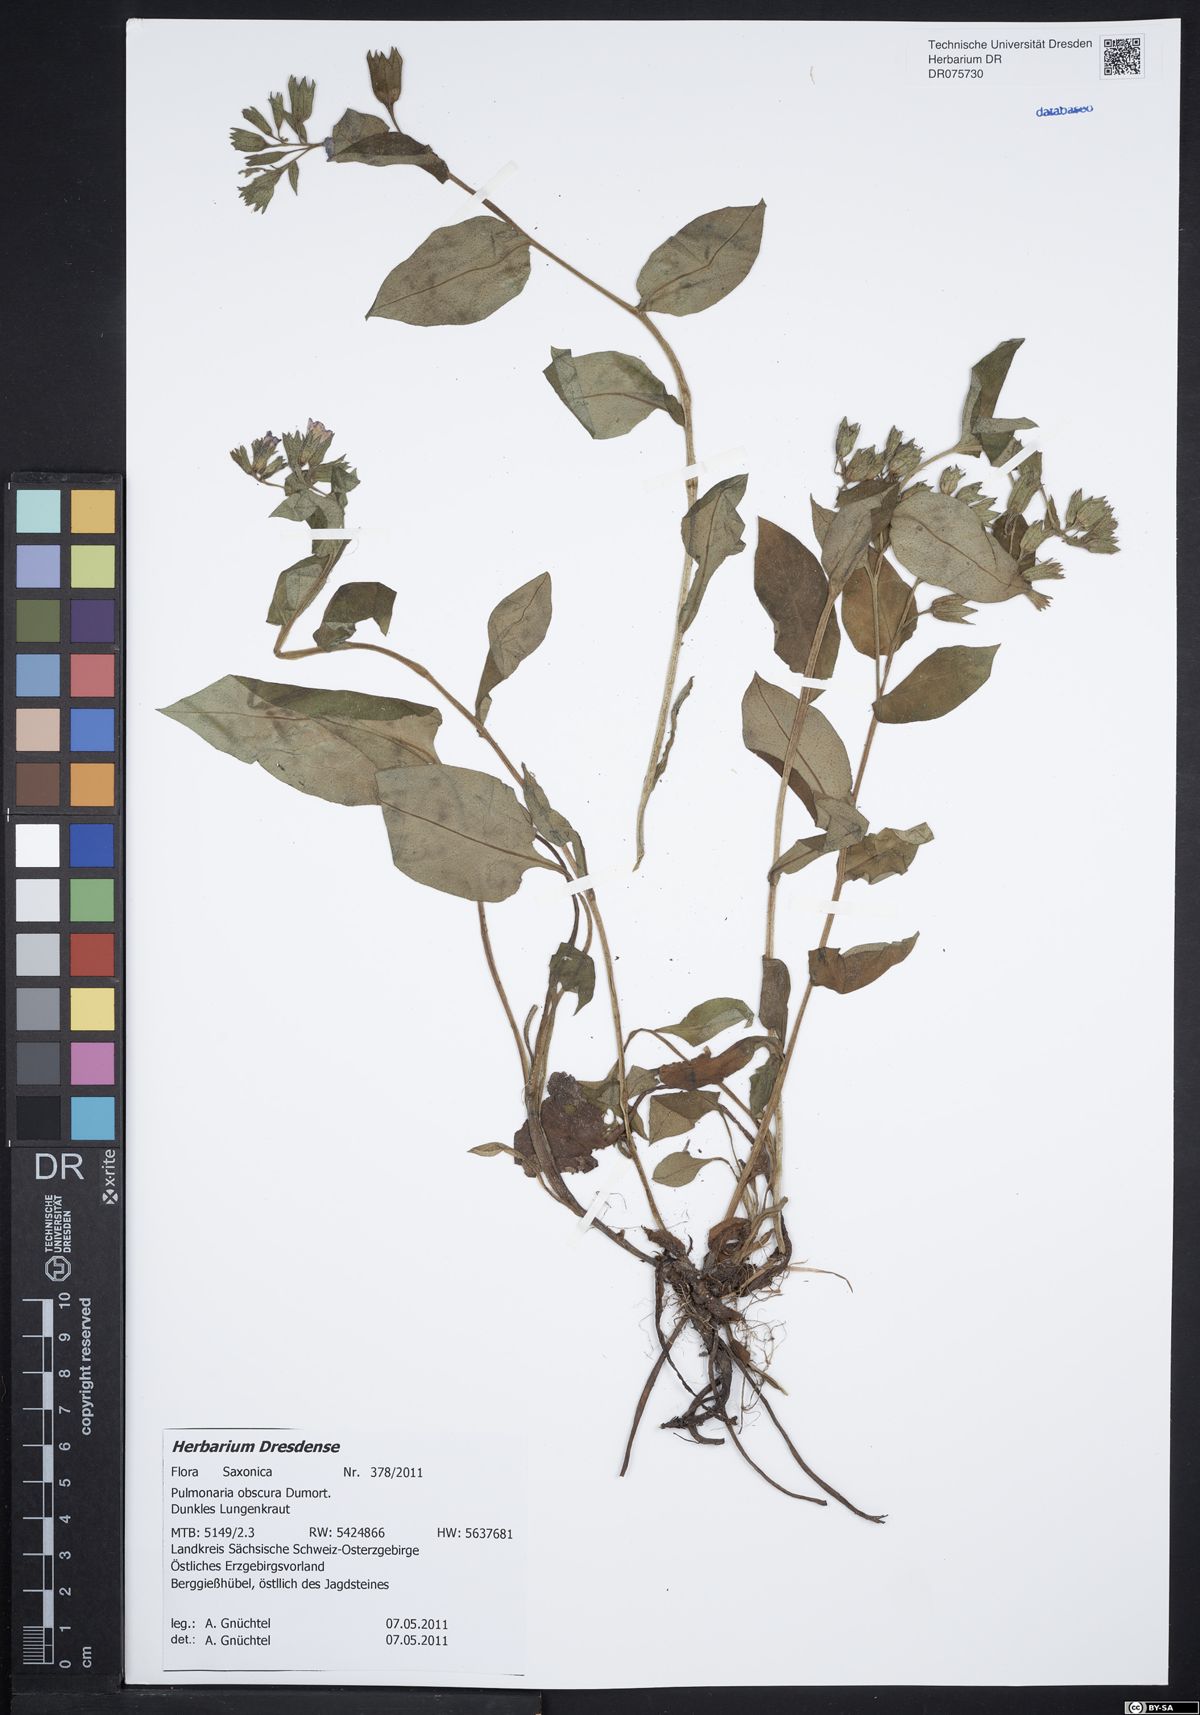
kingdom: Plantae
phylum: Tracheophyta
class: Magnoliopsida
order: Boraginales
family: Boraginaceae
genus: Pulmonaria
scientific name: Pulmonaria obscura
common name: Suffolk lungwort
